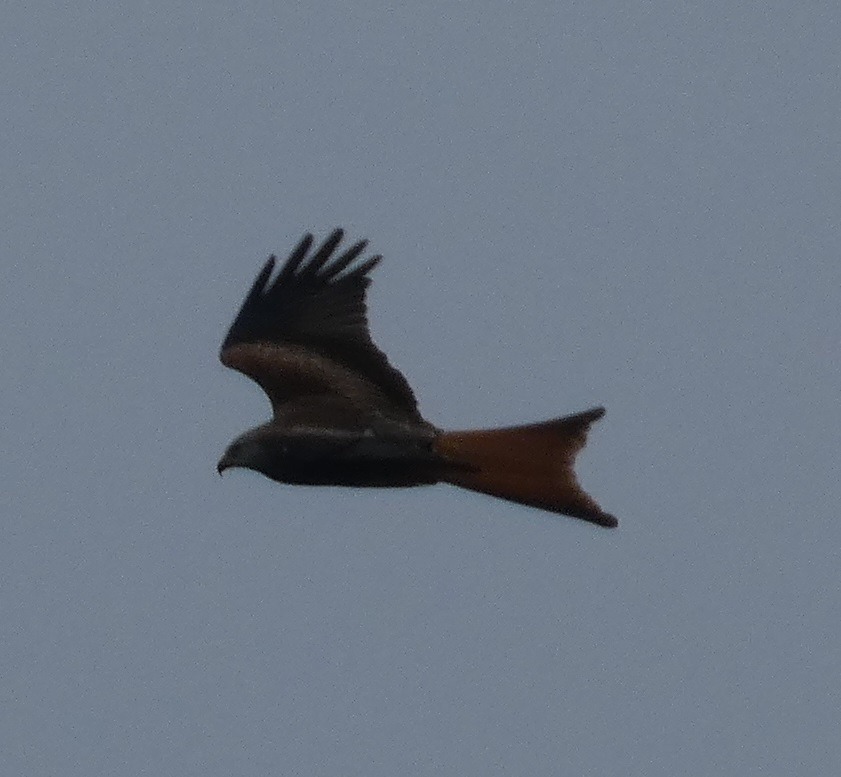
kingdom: Animalia
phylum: Chordata
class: Aves
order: Accipitriformes
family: Accipitridae
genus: Milvus
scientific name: Milvus milvus
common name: Rød glente
